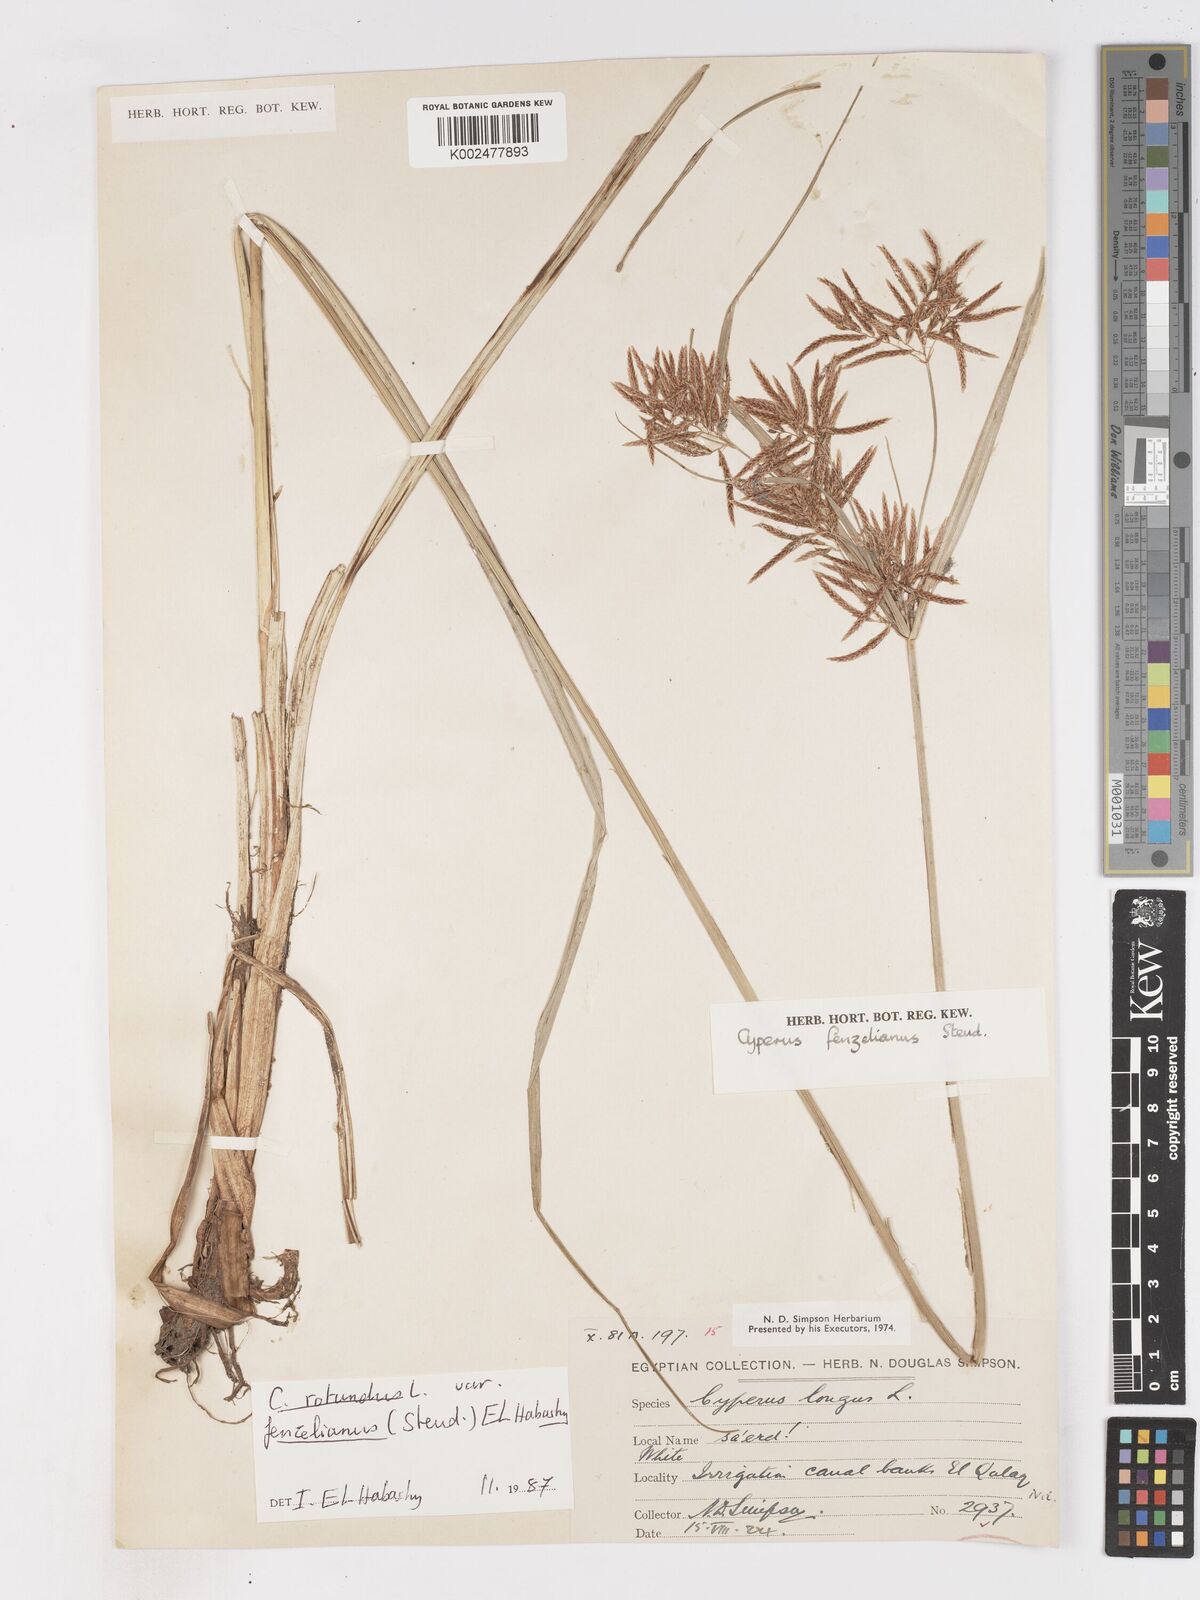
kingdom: Plantae
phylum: Tracheophyta
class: Liliopsida
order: Poales
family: Cyperaceae
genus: Cyperus
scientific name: Cyperus longus
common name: Galingale
